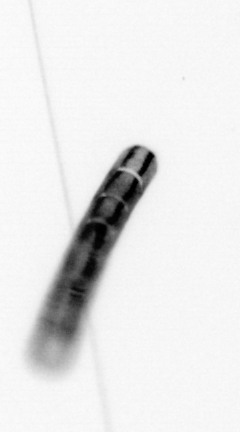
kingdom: Chromista
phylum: Ochrophyta
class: Bacillariophyceae
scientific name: Bacillariophyceae
